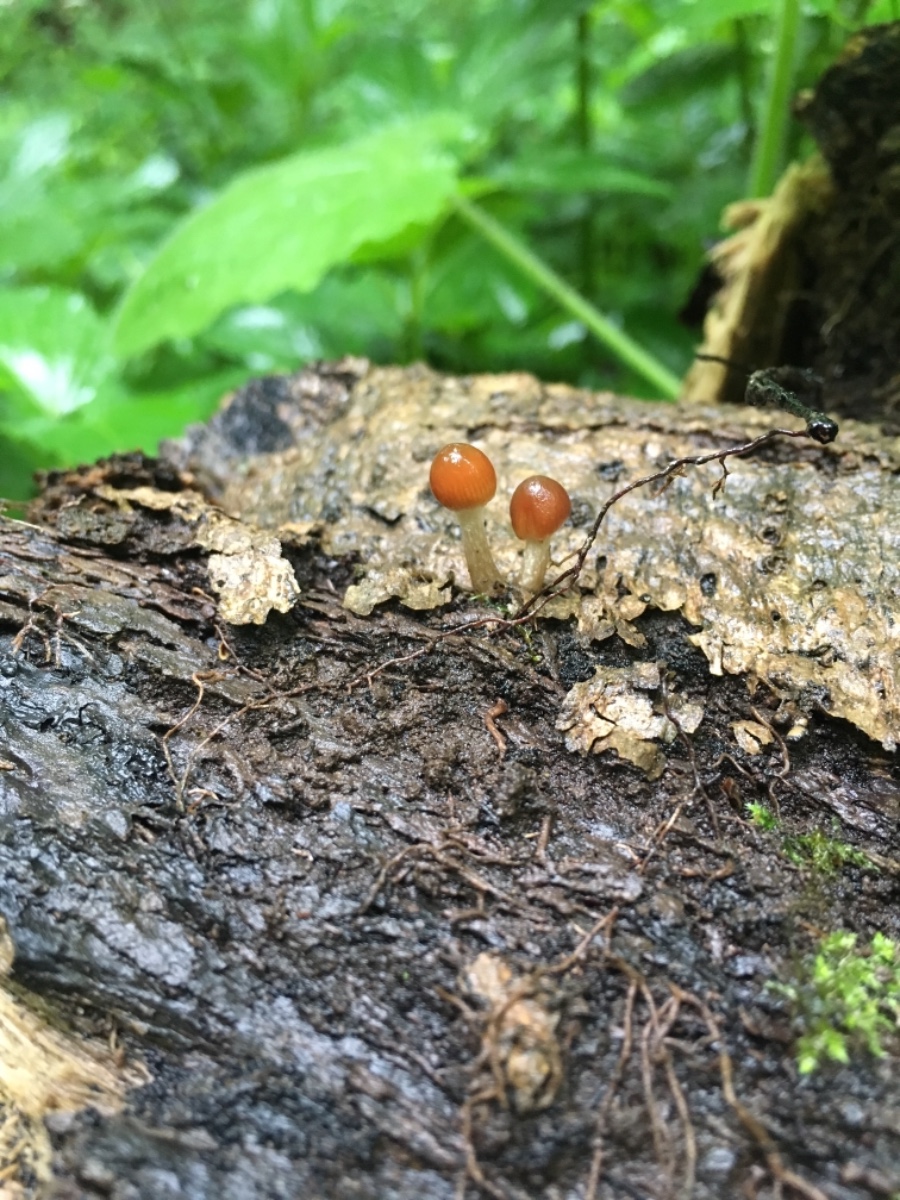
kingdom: Fungi
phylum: Basidiomycota
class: Agaricomycetes
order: Agaricales
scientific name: Agaricales
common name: champignonordenen
